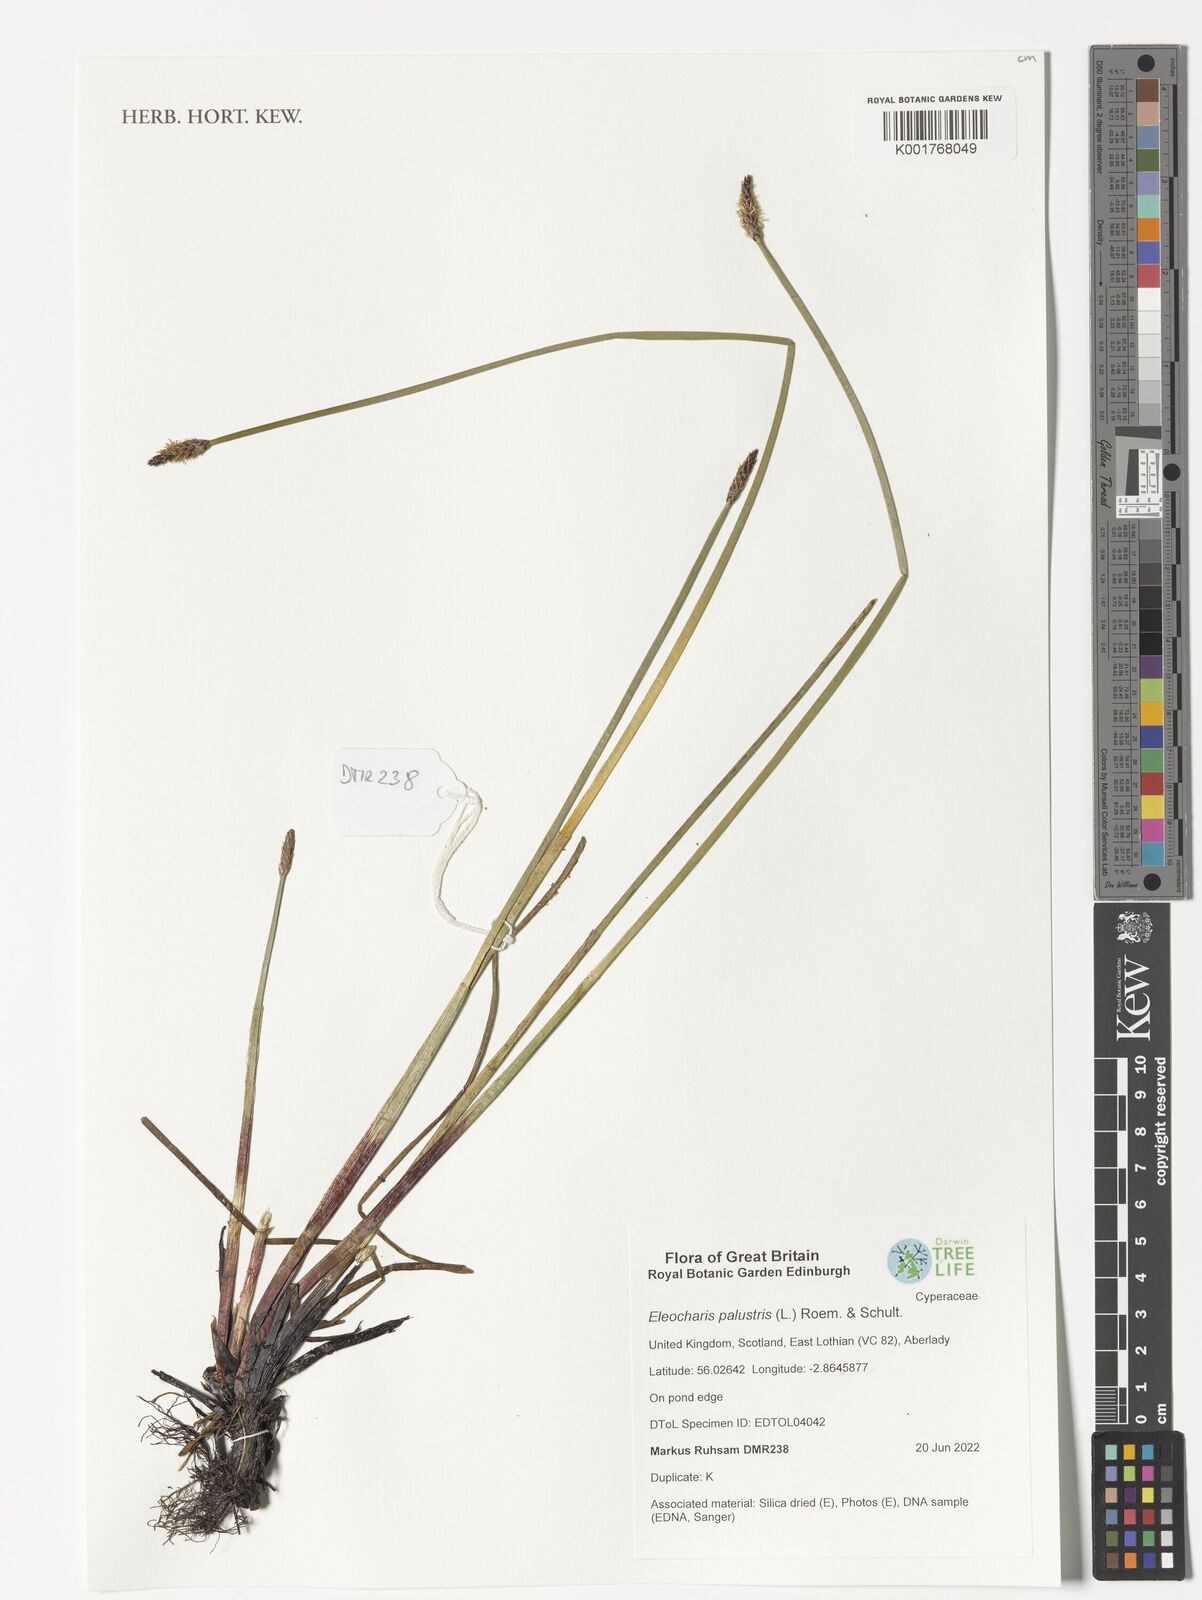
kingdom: Plantae
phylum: Tracheophyta
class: Liliopsida
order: Poales
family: Cyperaceae
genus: Eleocharis
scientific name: Eleocharis palustris
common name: Common spike-rush
